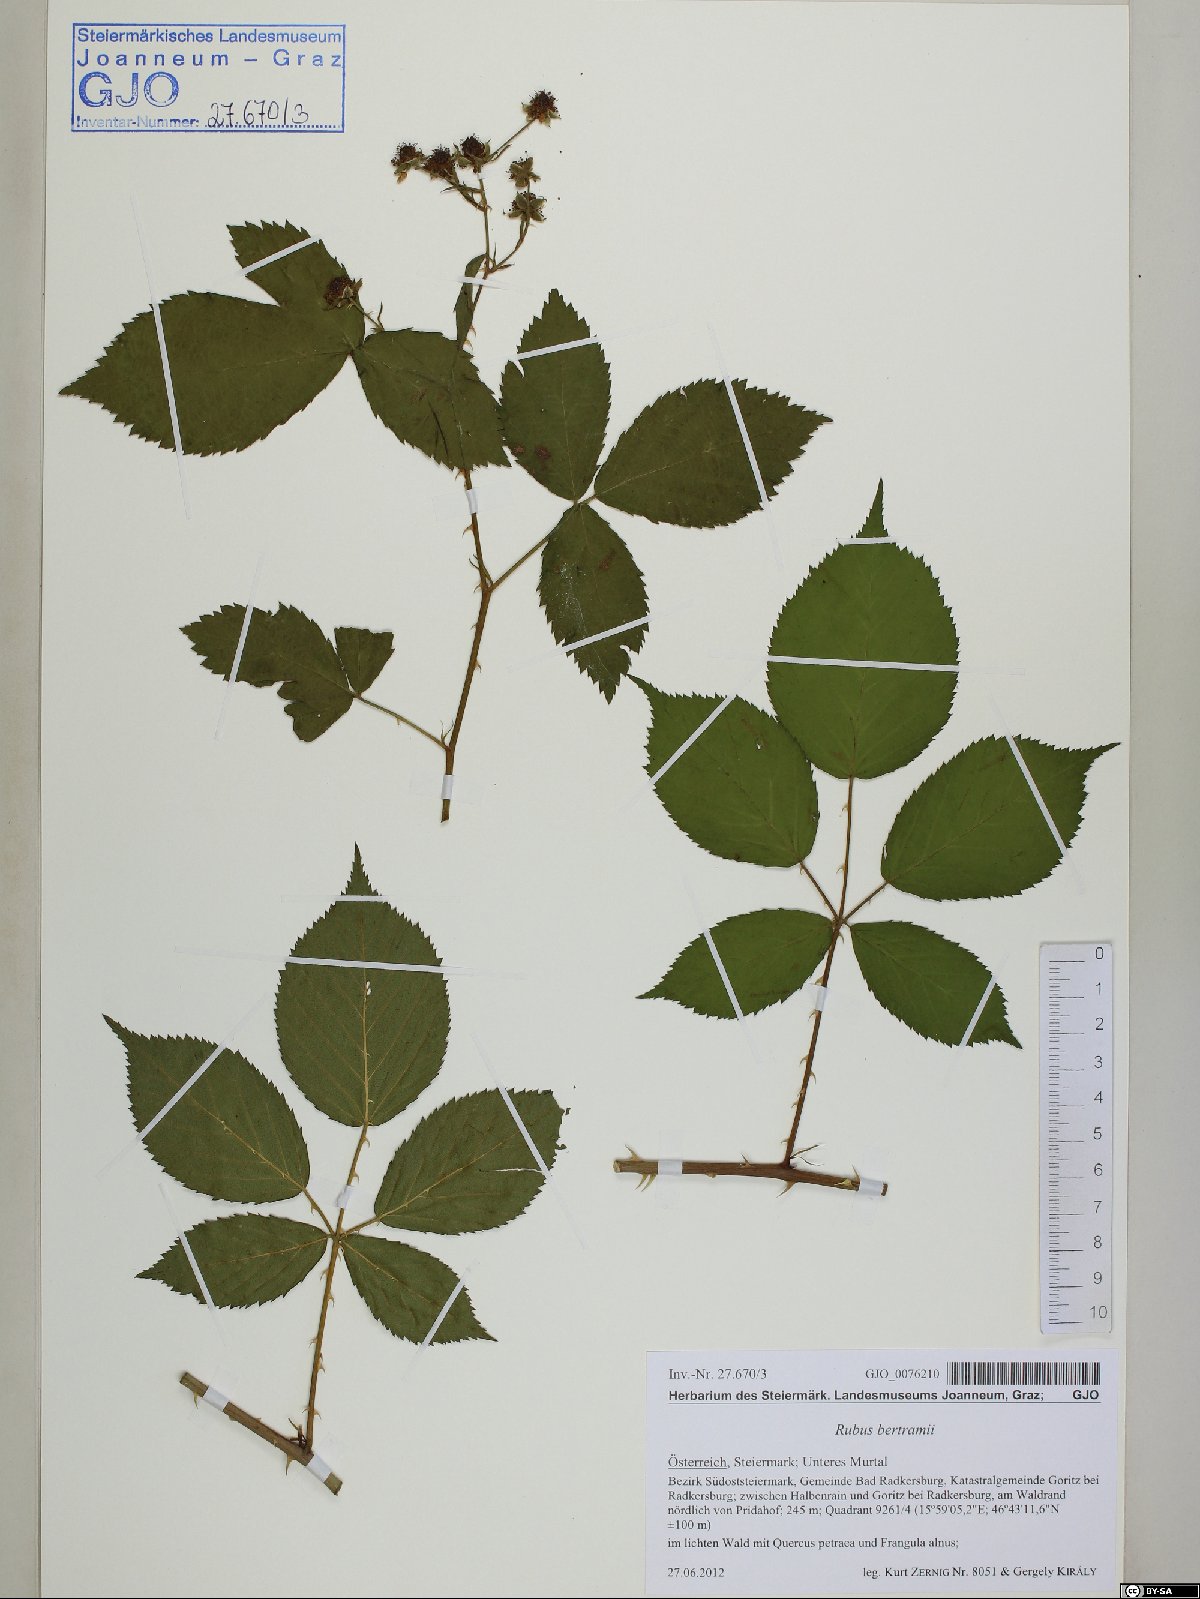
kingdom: Plantae
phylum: Tracheophyta
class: Magnoliopsida
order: Rosales
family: Rosaceae
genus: Rubus
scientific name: Rubus bertramii
